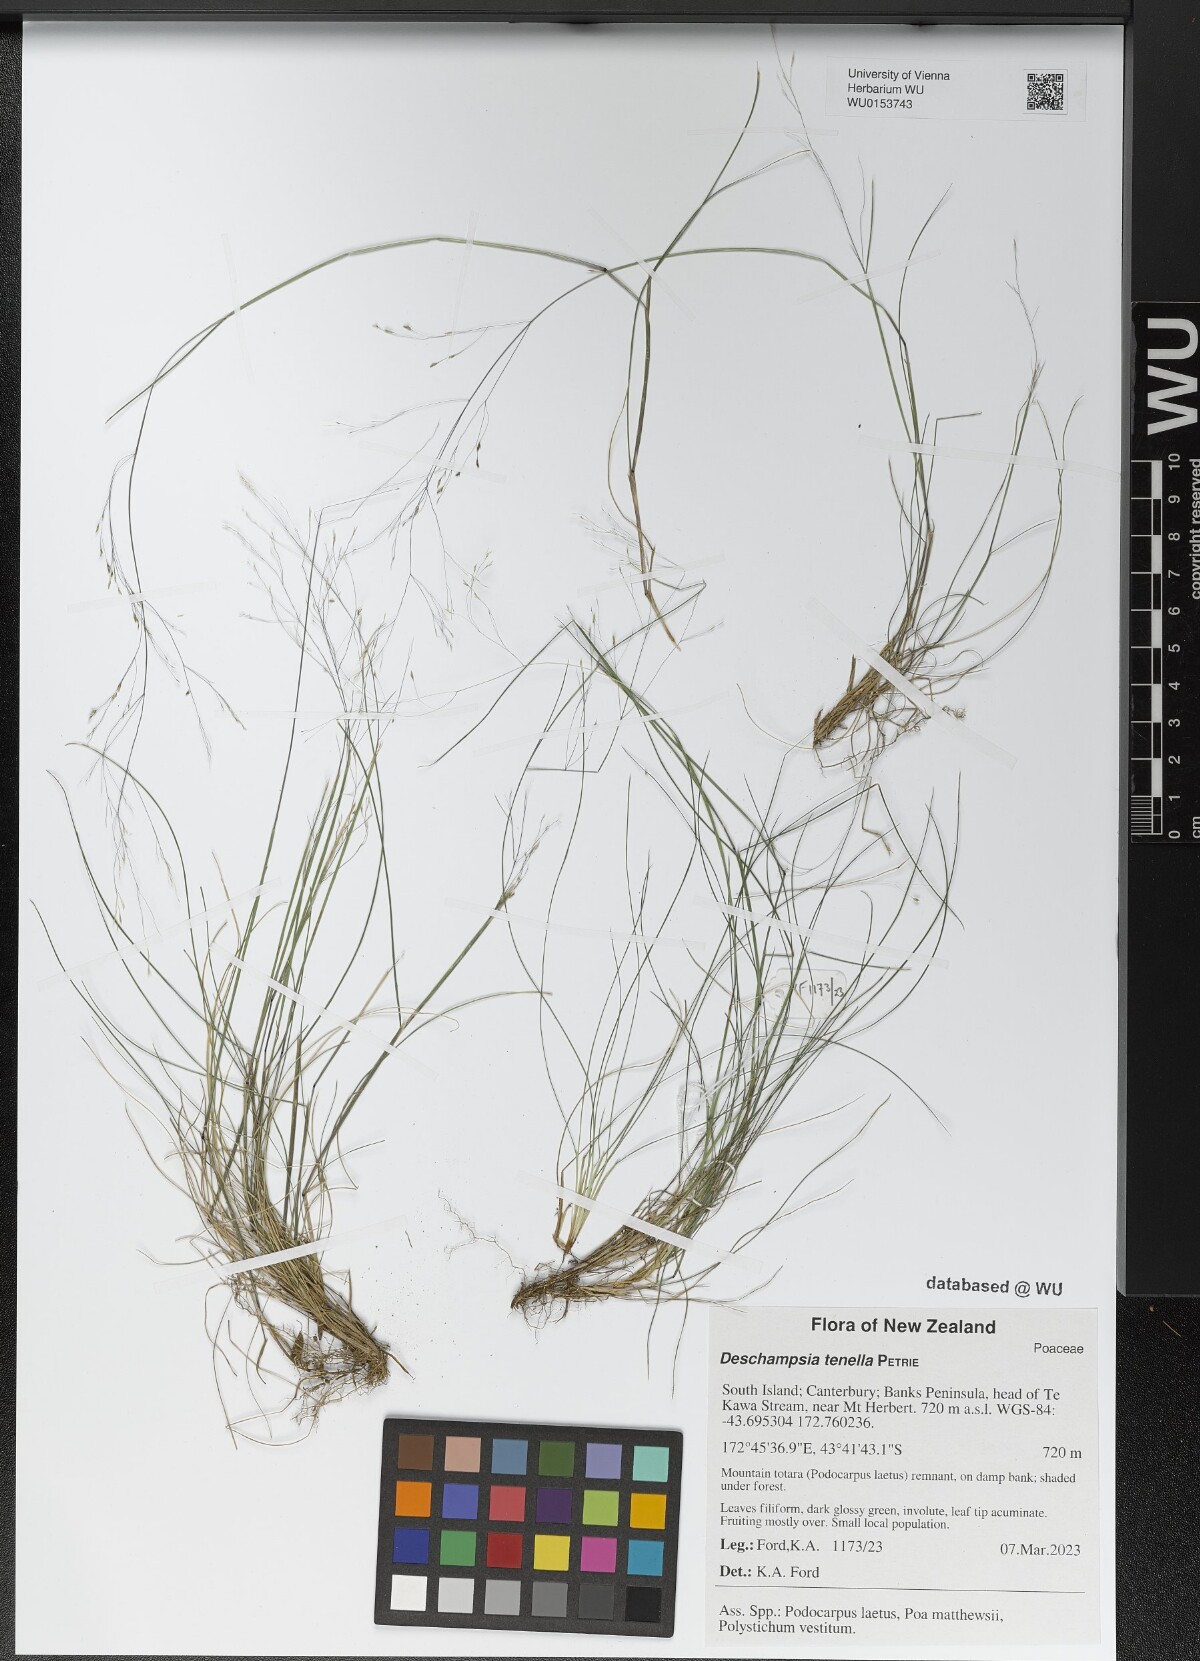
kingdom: Plantae
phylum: Tracheophyta
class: Liliopsida
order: Poales
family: Poaceae
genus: Deschampsia
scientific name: Deschampsia tenella
